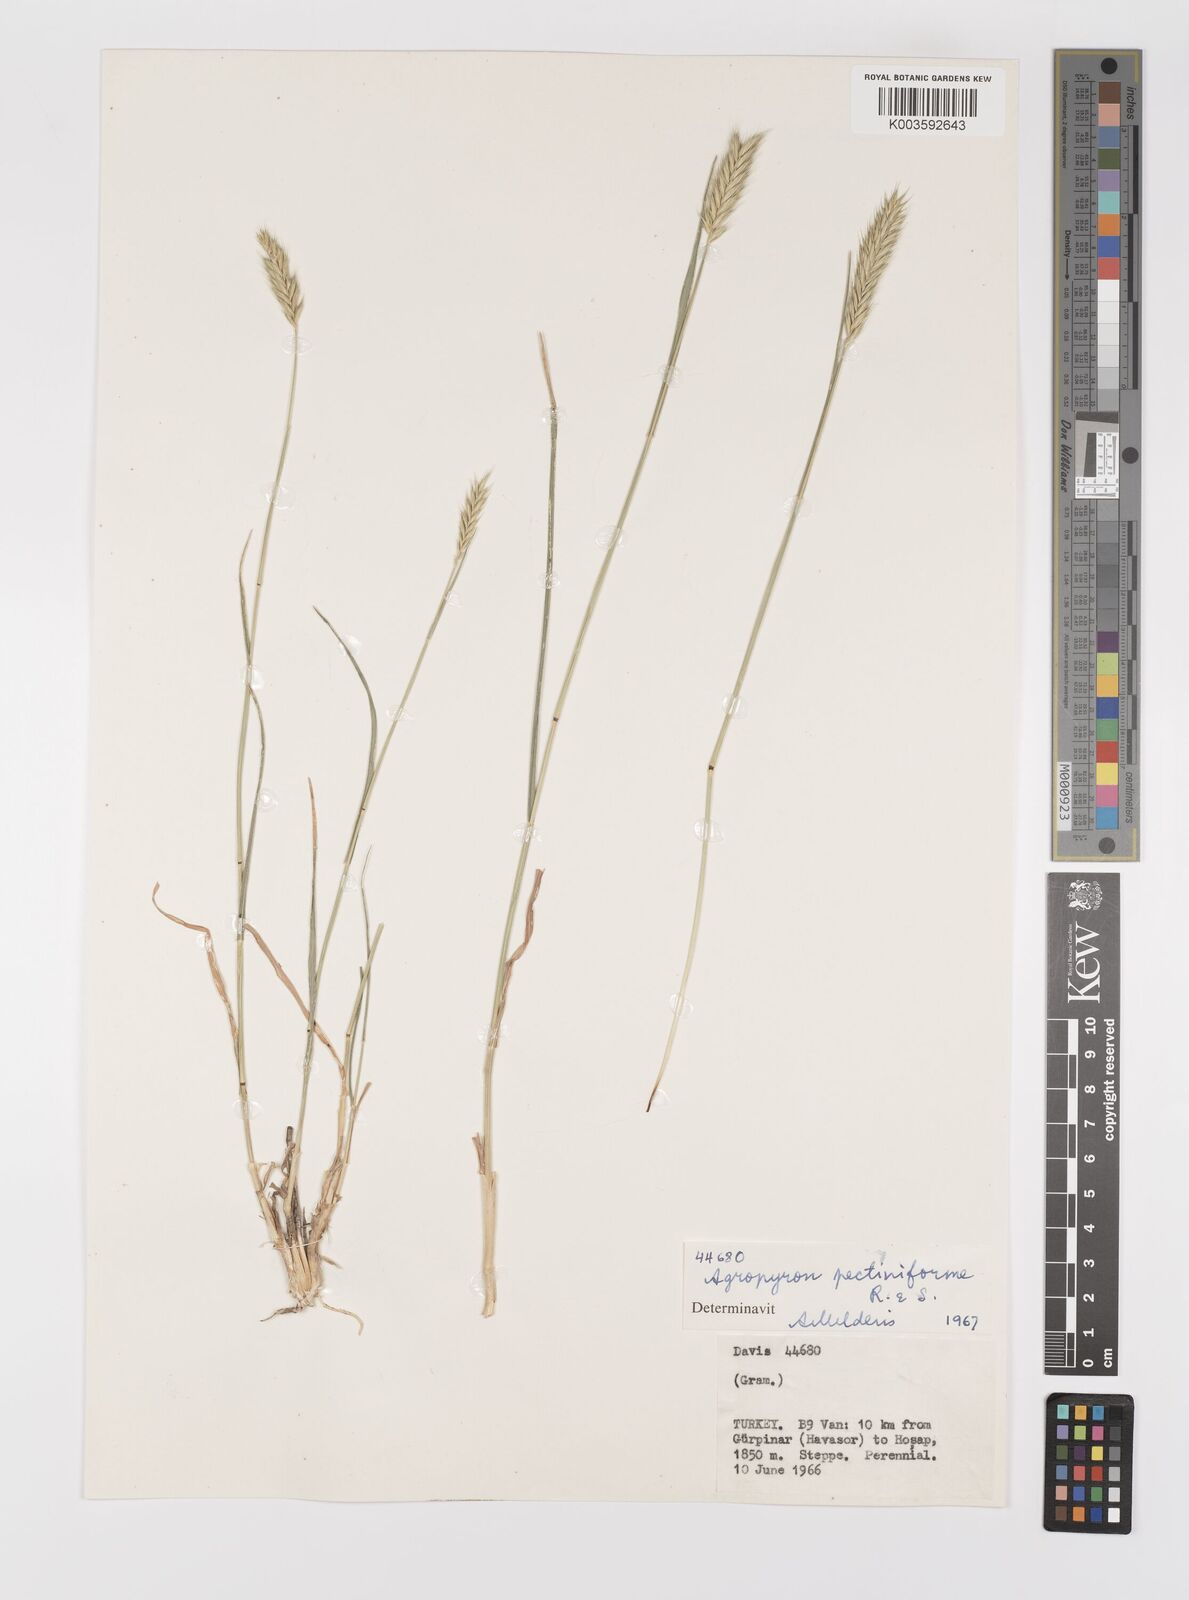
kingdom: Plantae
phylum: Tracheophyta
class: Liliopsida
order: Poales
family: Poaceae
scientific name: Poaceae
